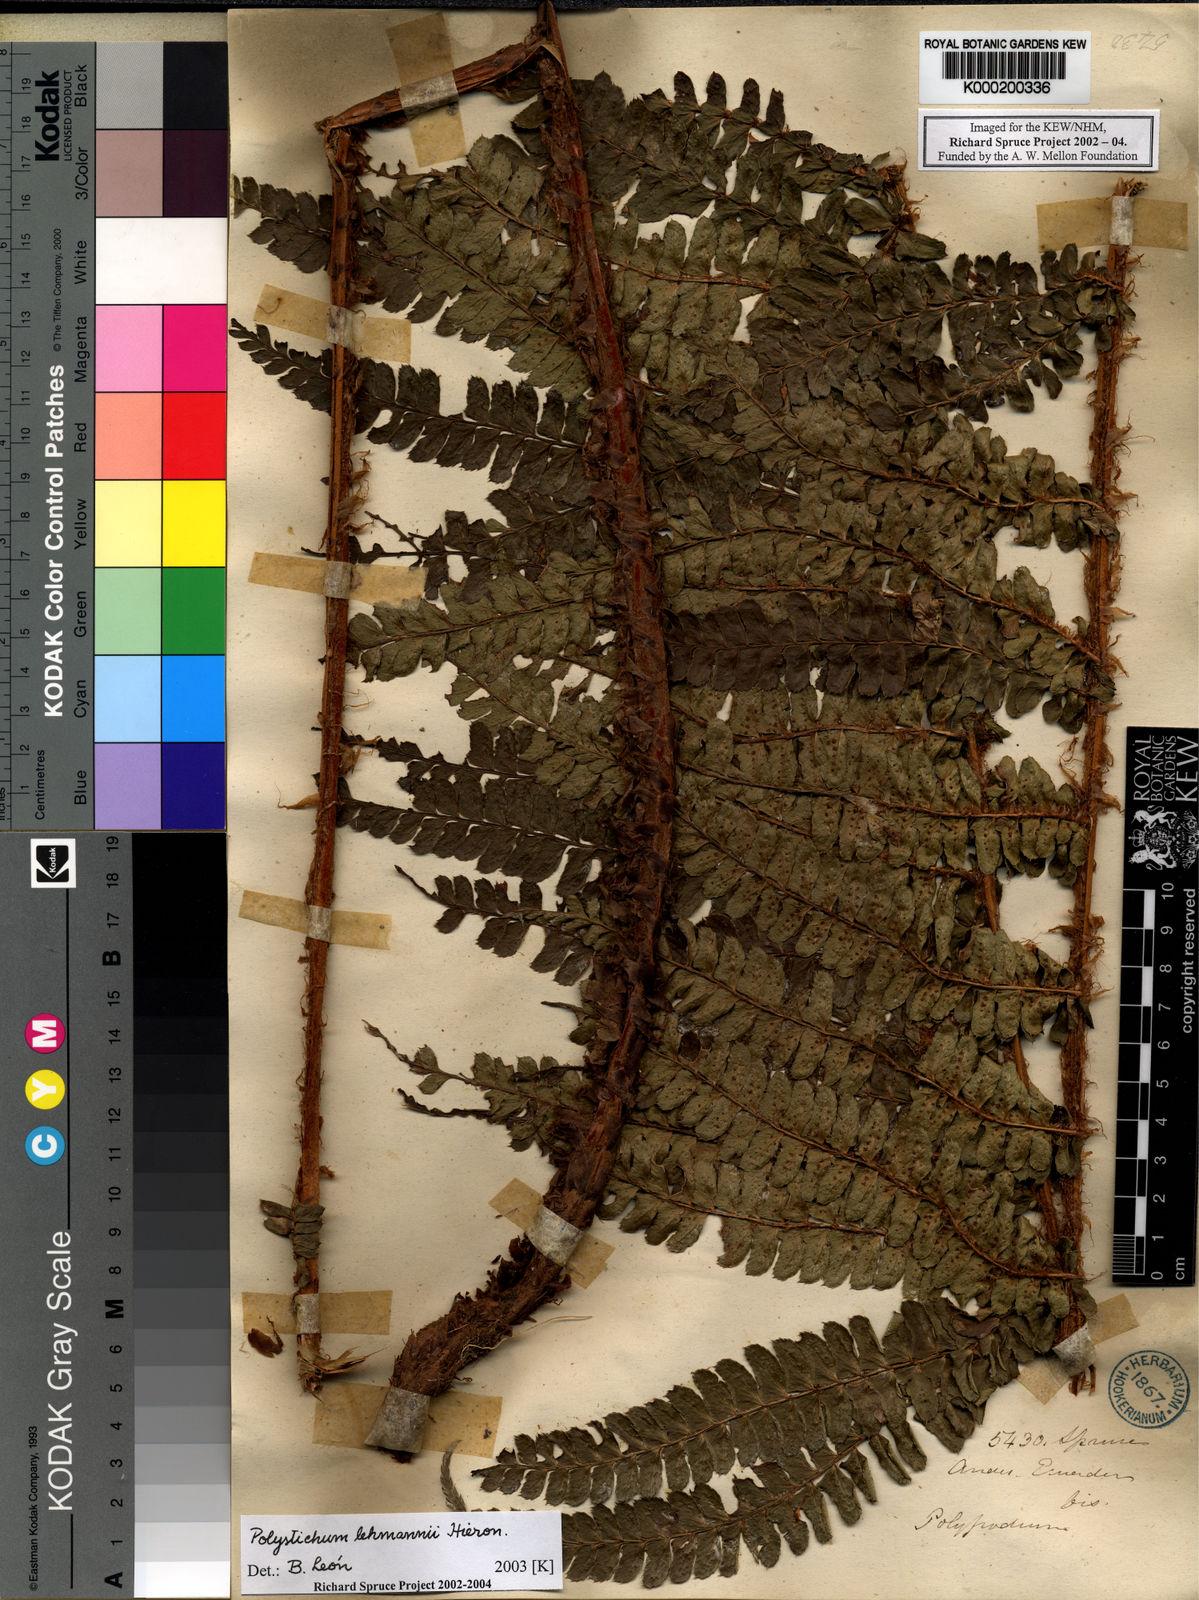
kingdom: Plantae
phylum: Tracheophyta
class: Polypodiopsida
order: Polypodiales
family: Dryopteridaceae
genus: Polystichum
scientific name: Polystichum lehmannii
